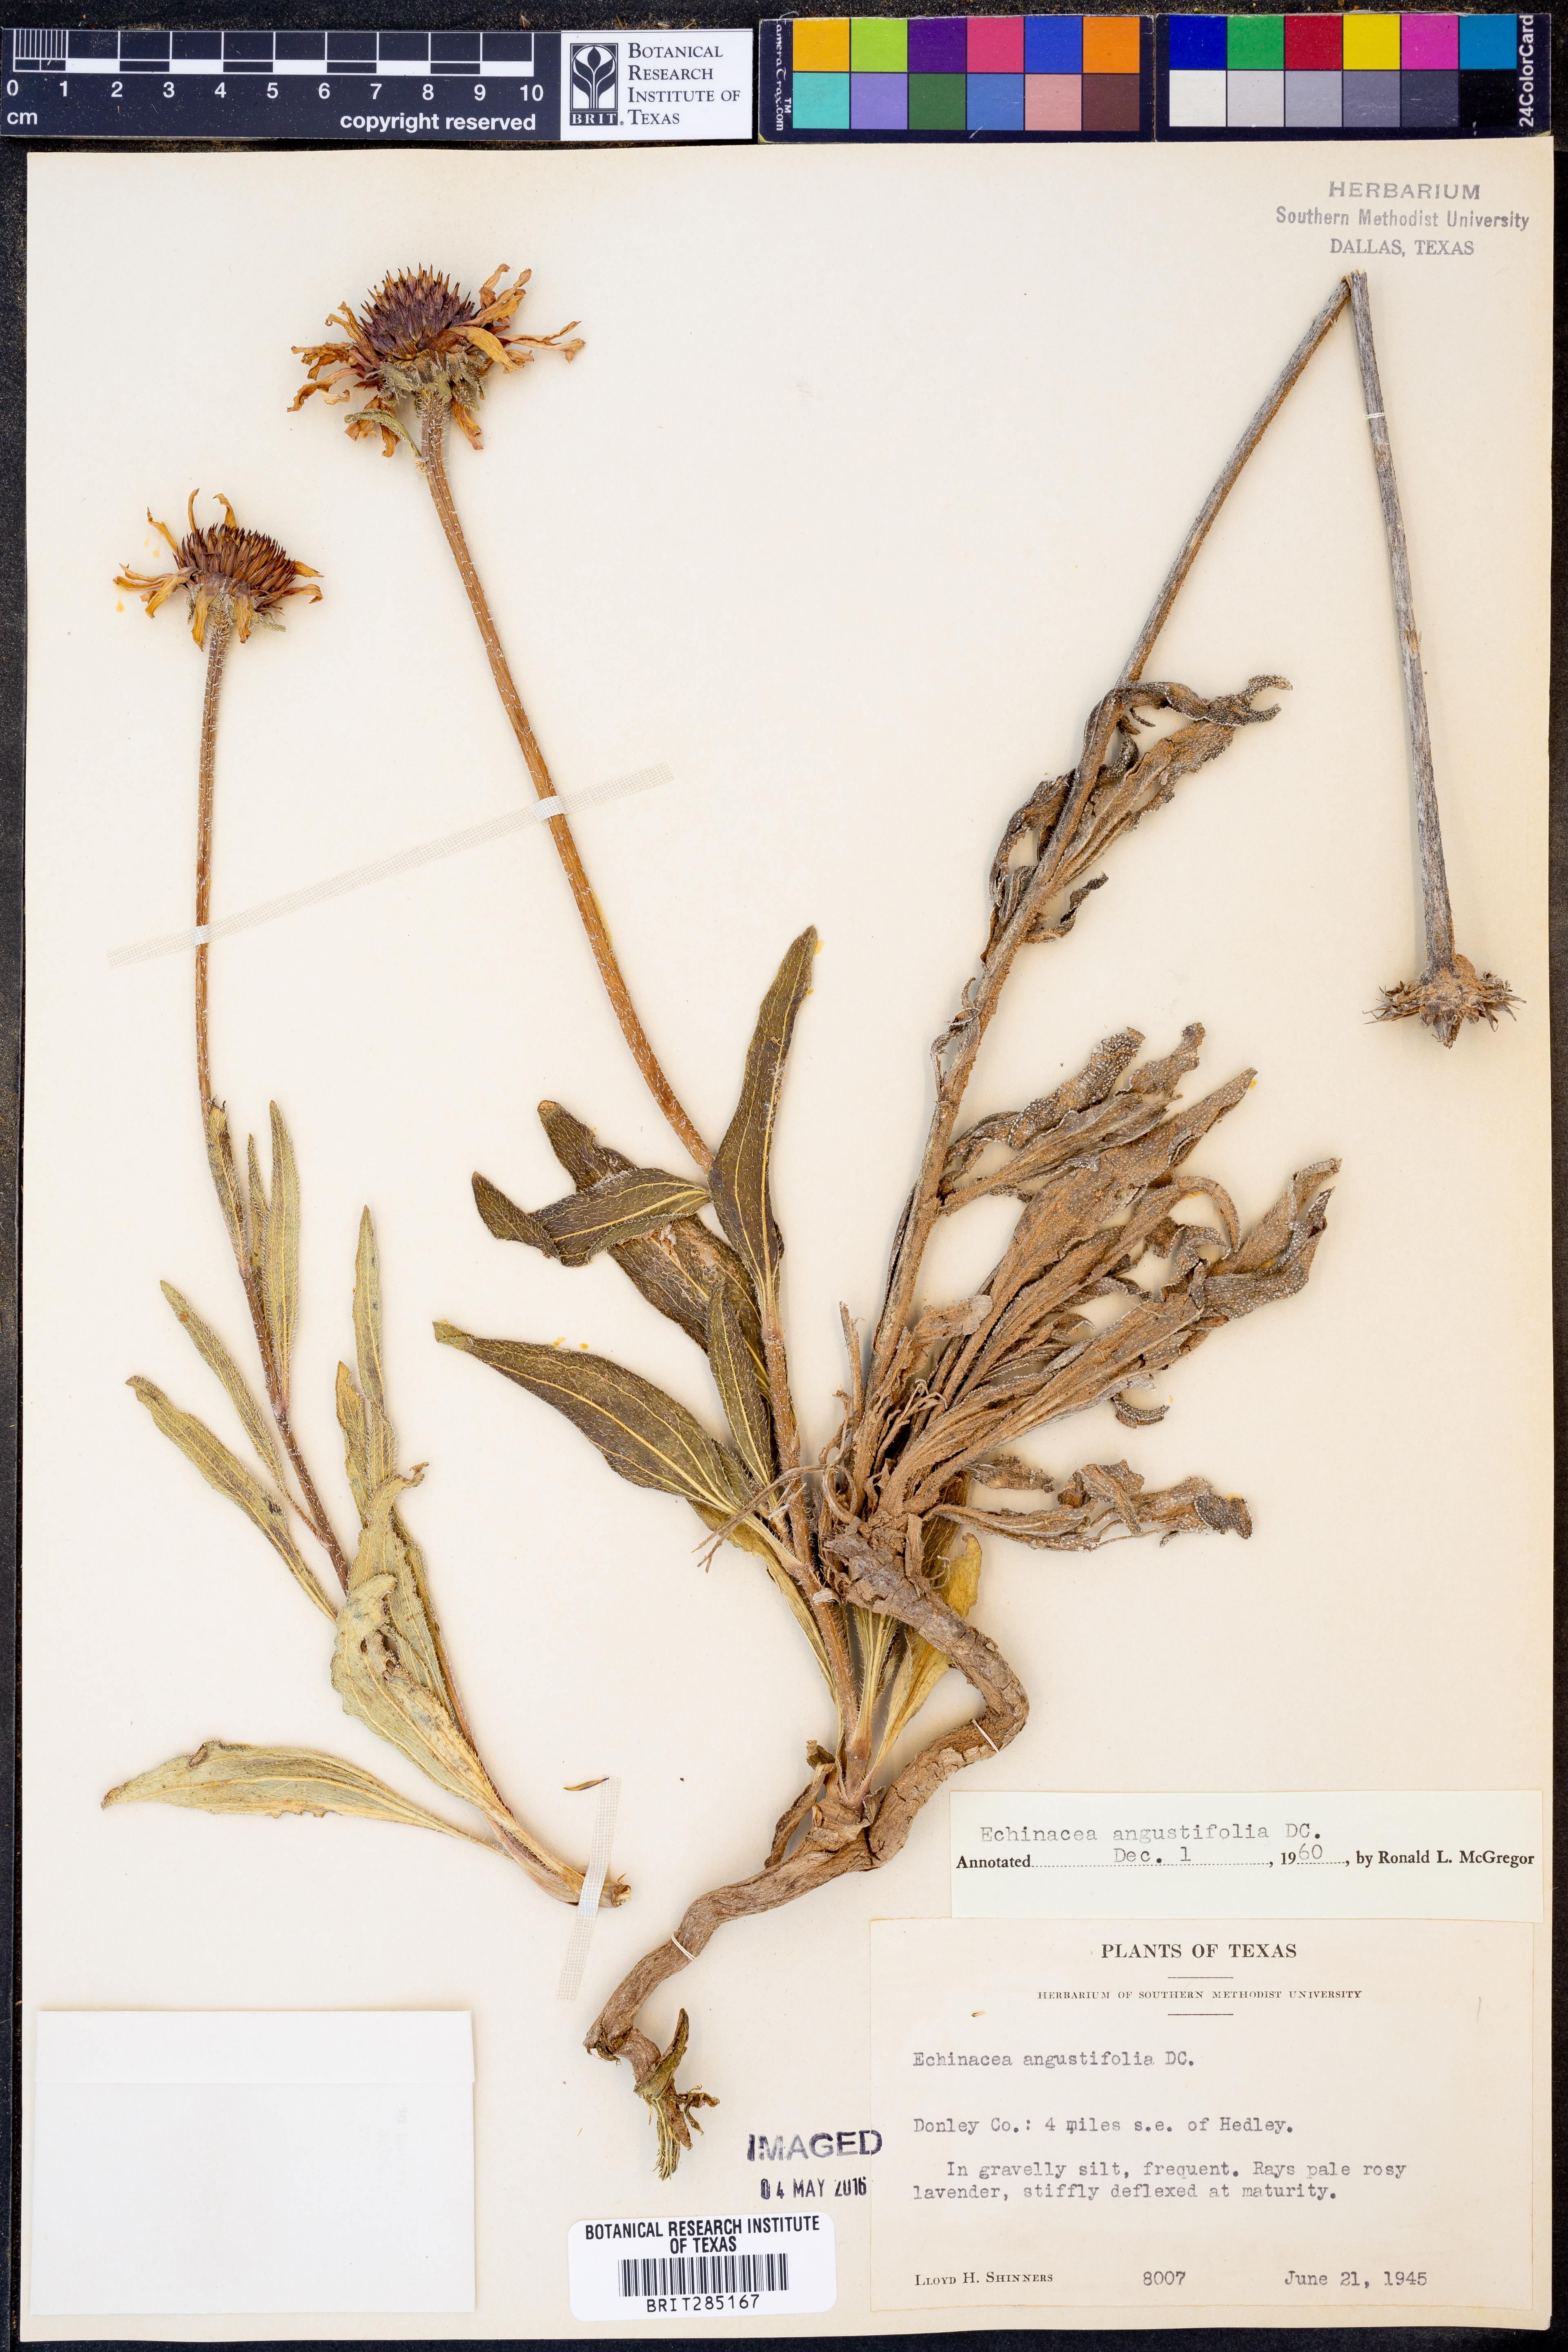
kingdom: Plantae
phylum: Tracheophyta
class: Magnoliopsida
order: Asterales
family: Asteraceae
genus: Echinacea
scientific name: Echinacea angustifolia
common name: Black-sampson echinacea
